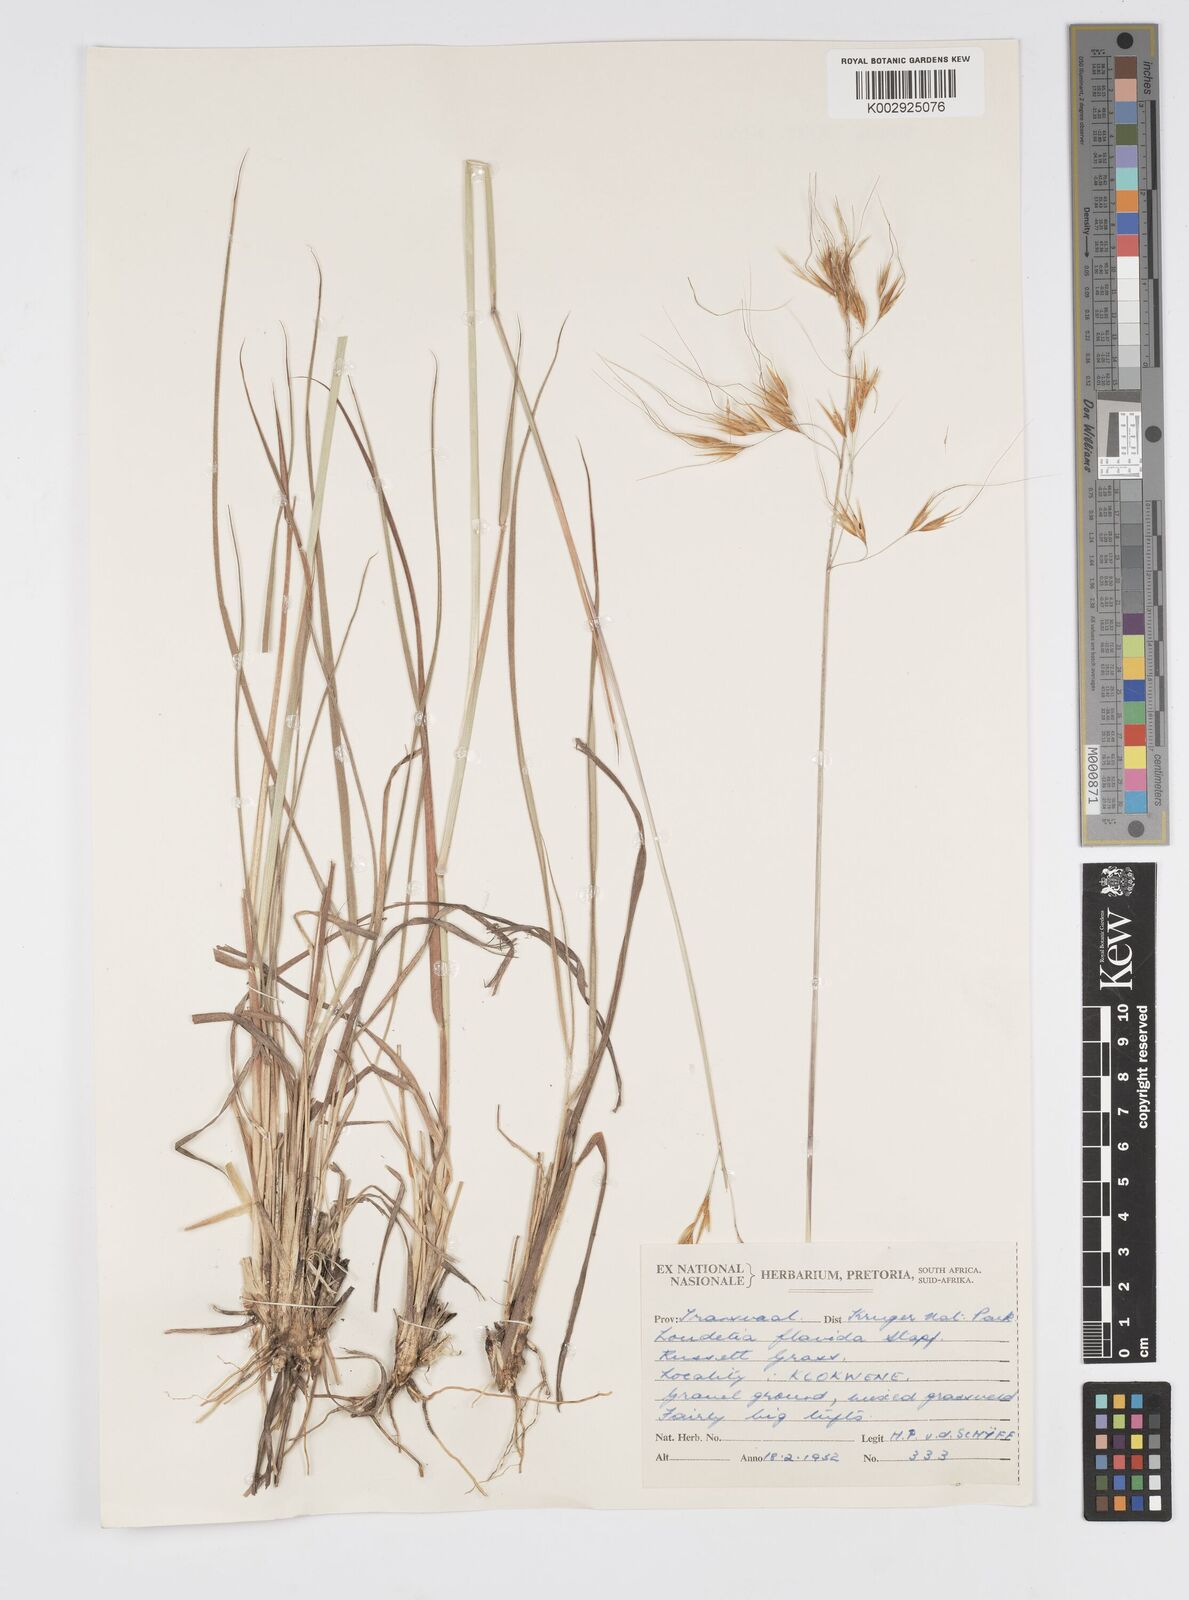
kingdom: Plantae
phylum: Tracheophyta
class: Liliopsida
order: Poales
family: Poaceae
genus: Loudetia
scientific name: Loudetia flavida
